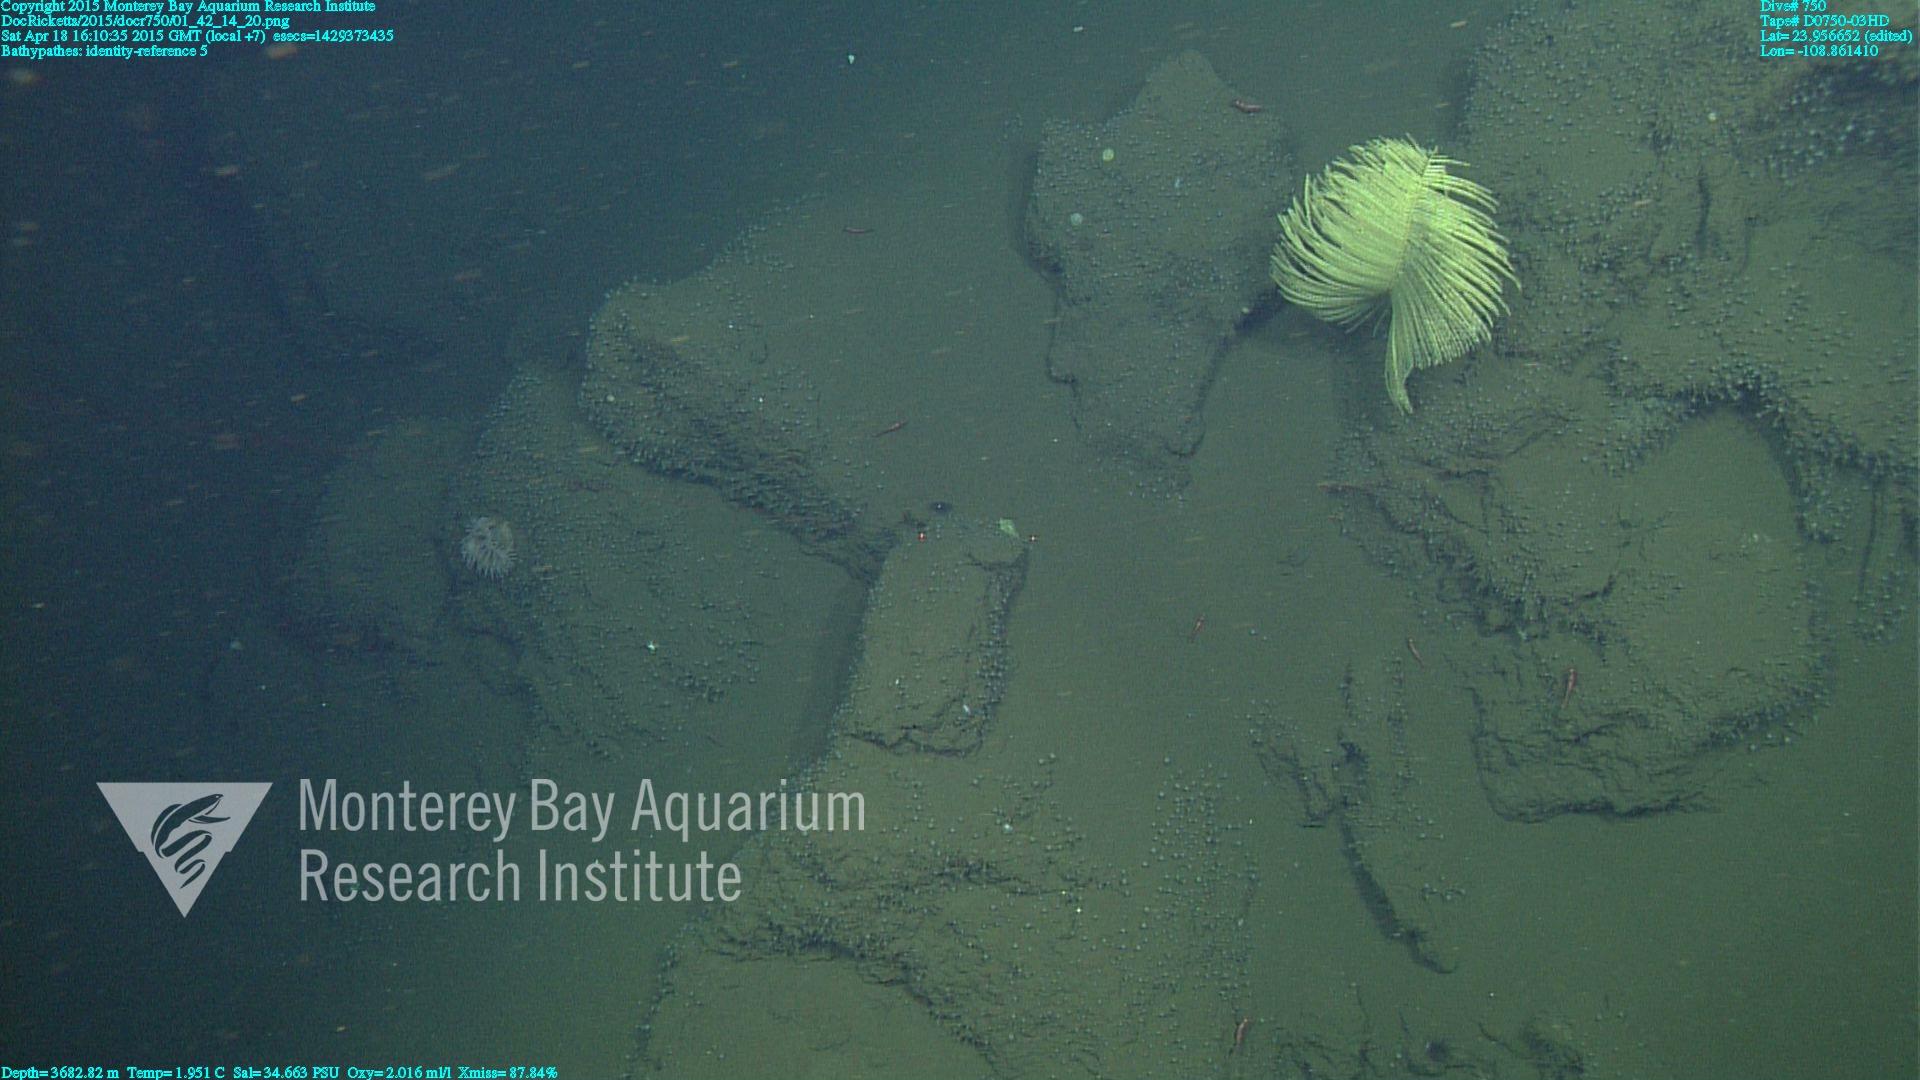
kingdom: Animalia
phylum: Cnidaria
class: Anthozoa
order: Antipatharia
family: Schizopathidae
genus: Bathypathes
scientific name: Bathypathes
